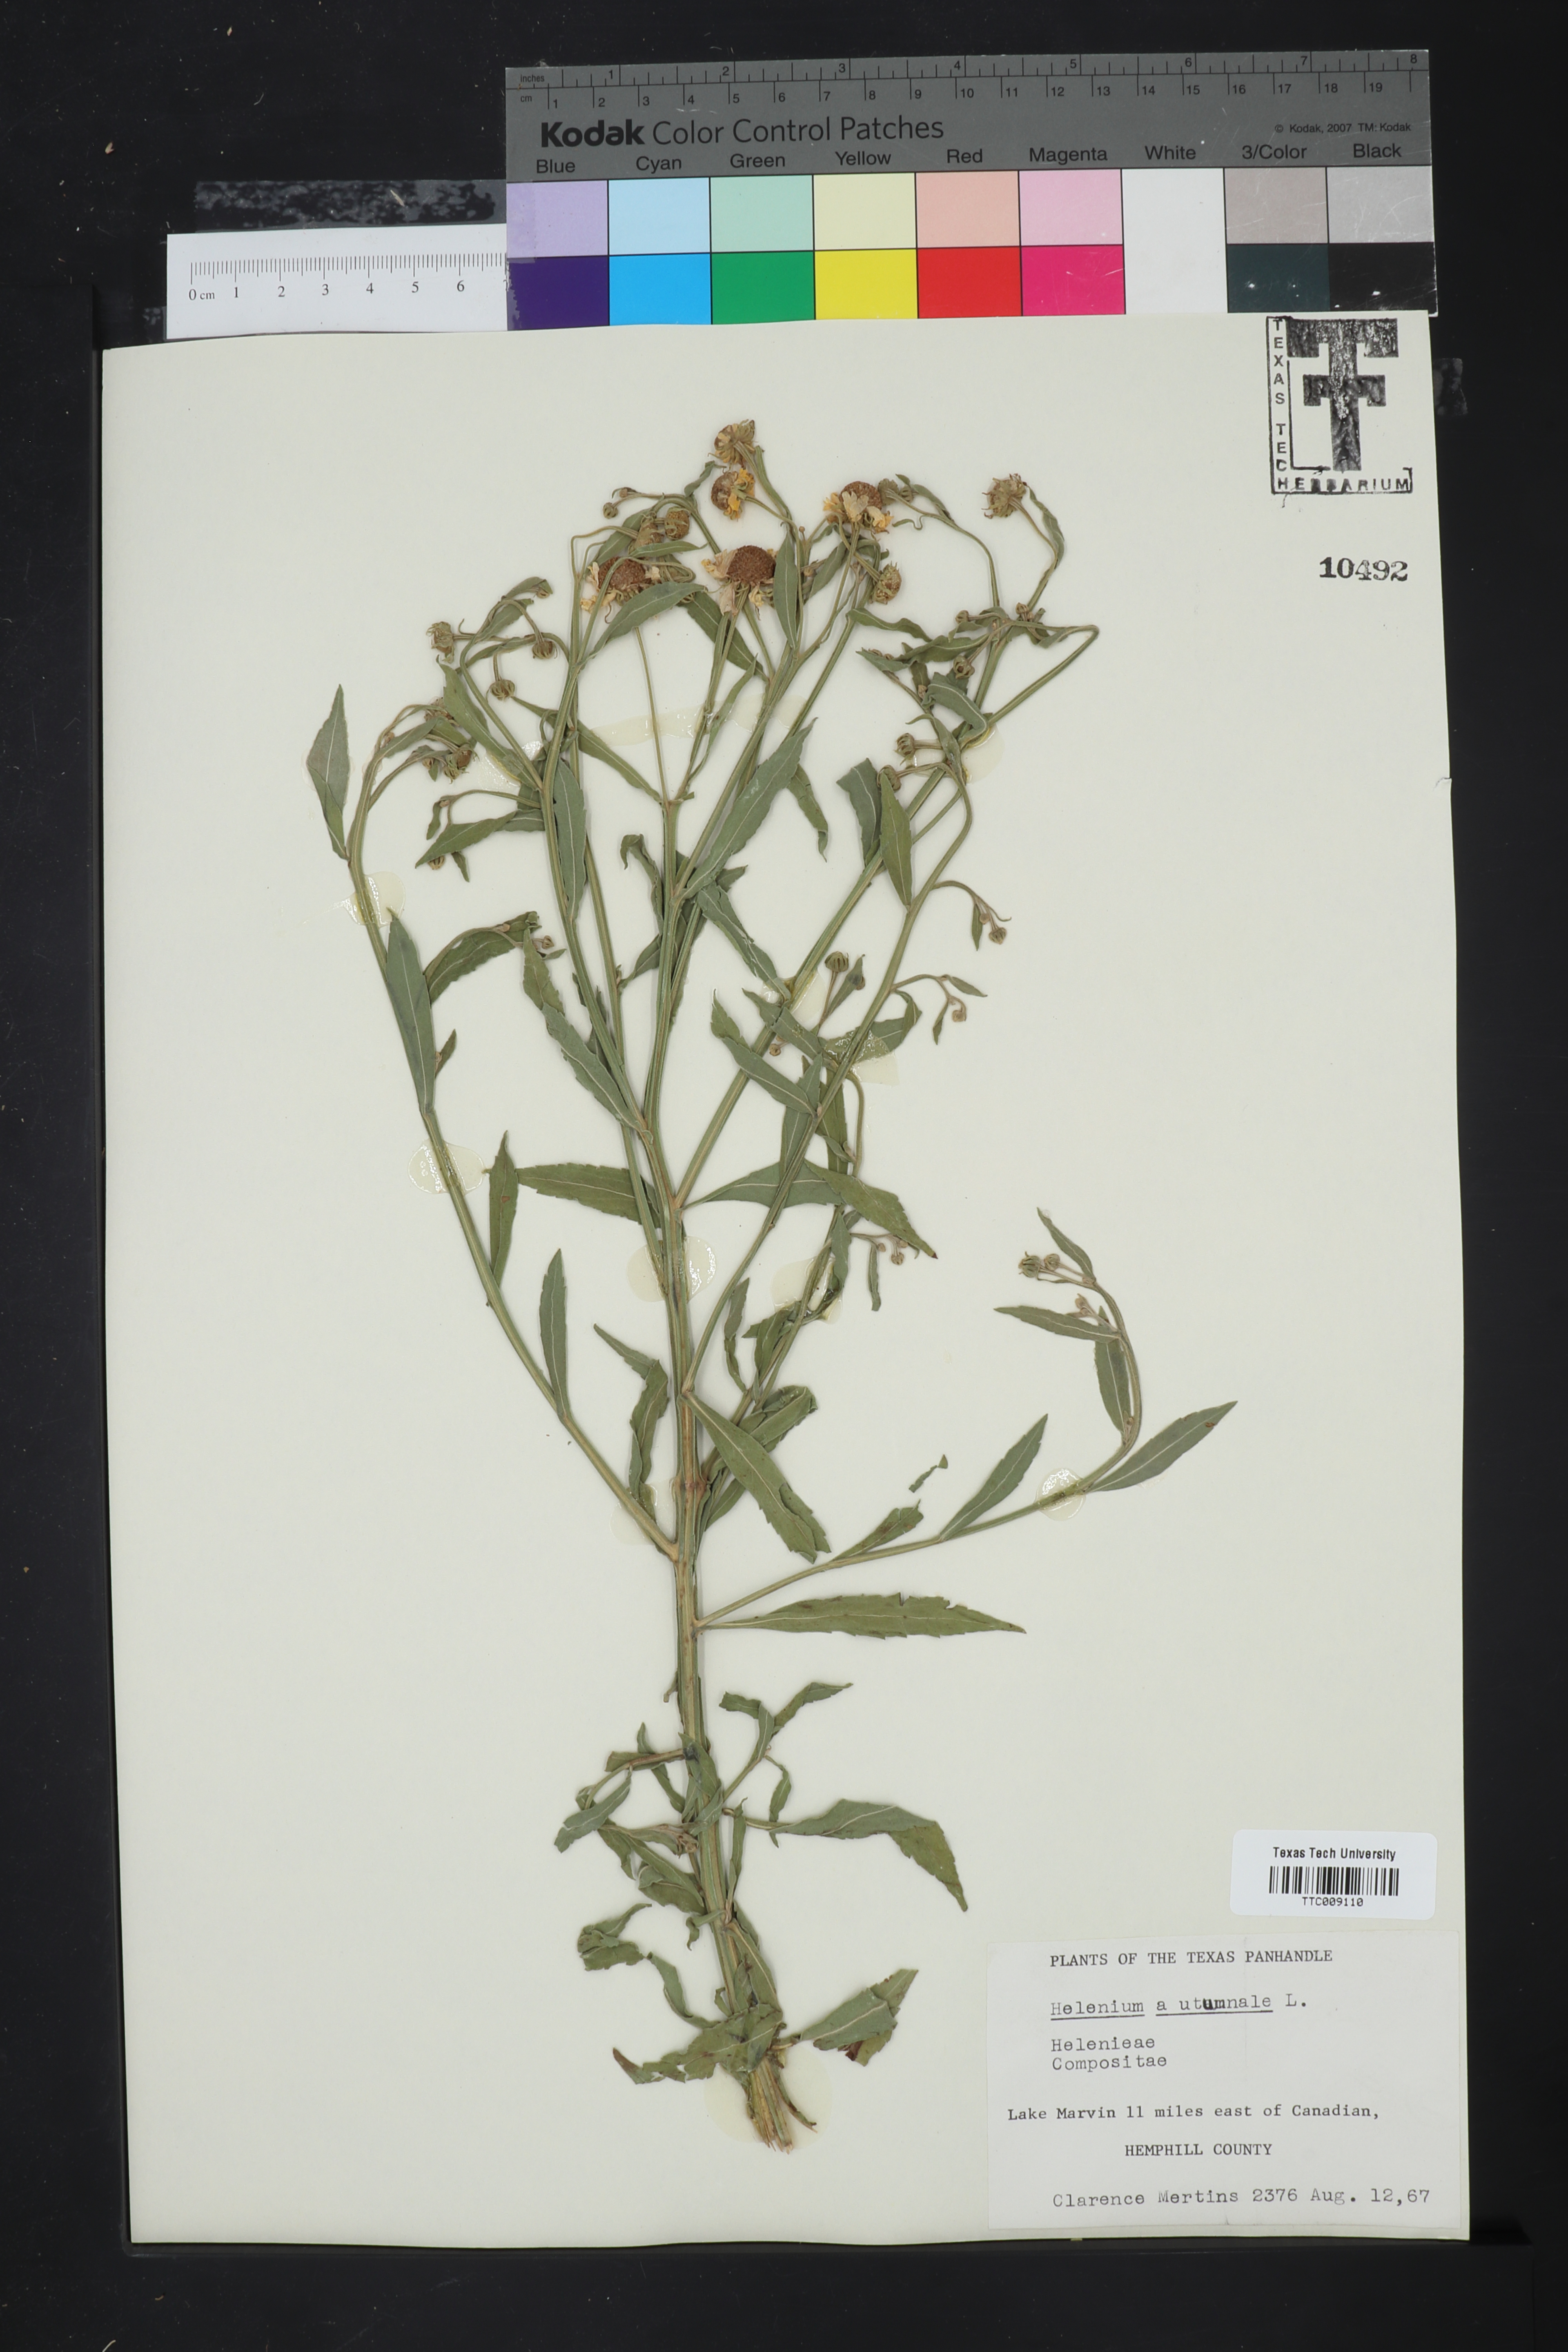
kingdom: Plantae
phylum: Tracheophyta
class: Magnoliopsida
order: Asterales
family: Asteraceae
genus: Helenium
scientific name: Helenium autumnale
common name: Sneezeweed
